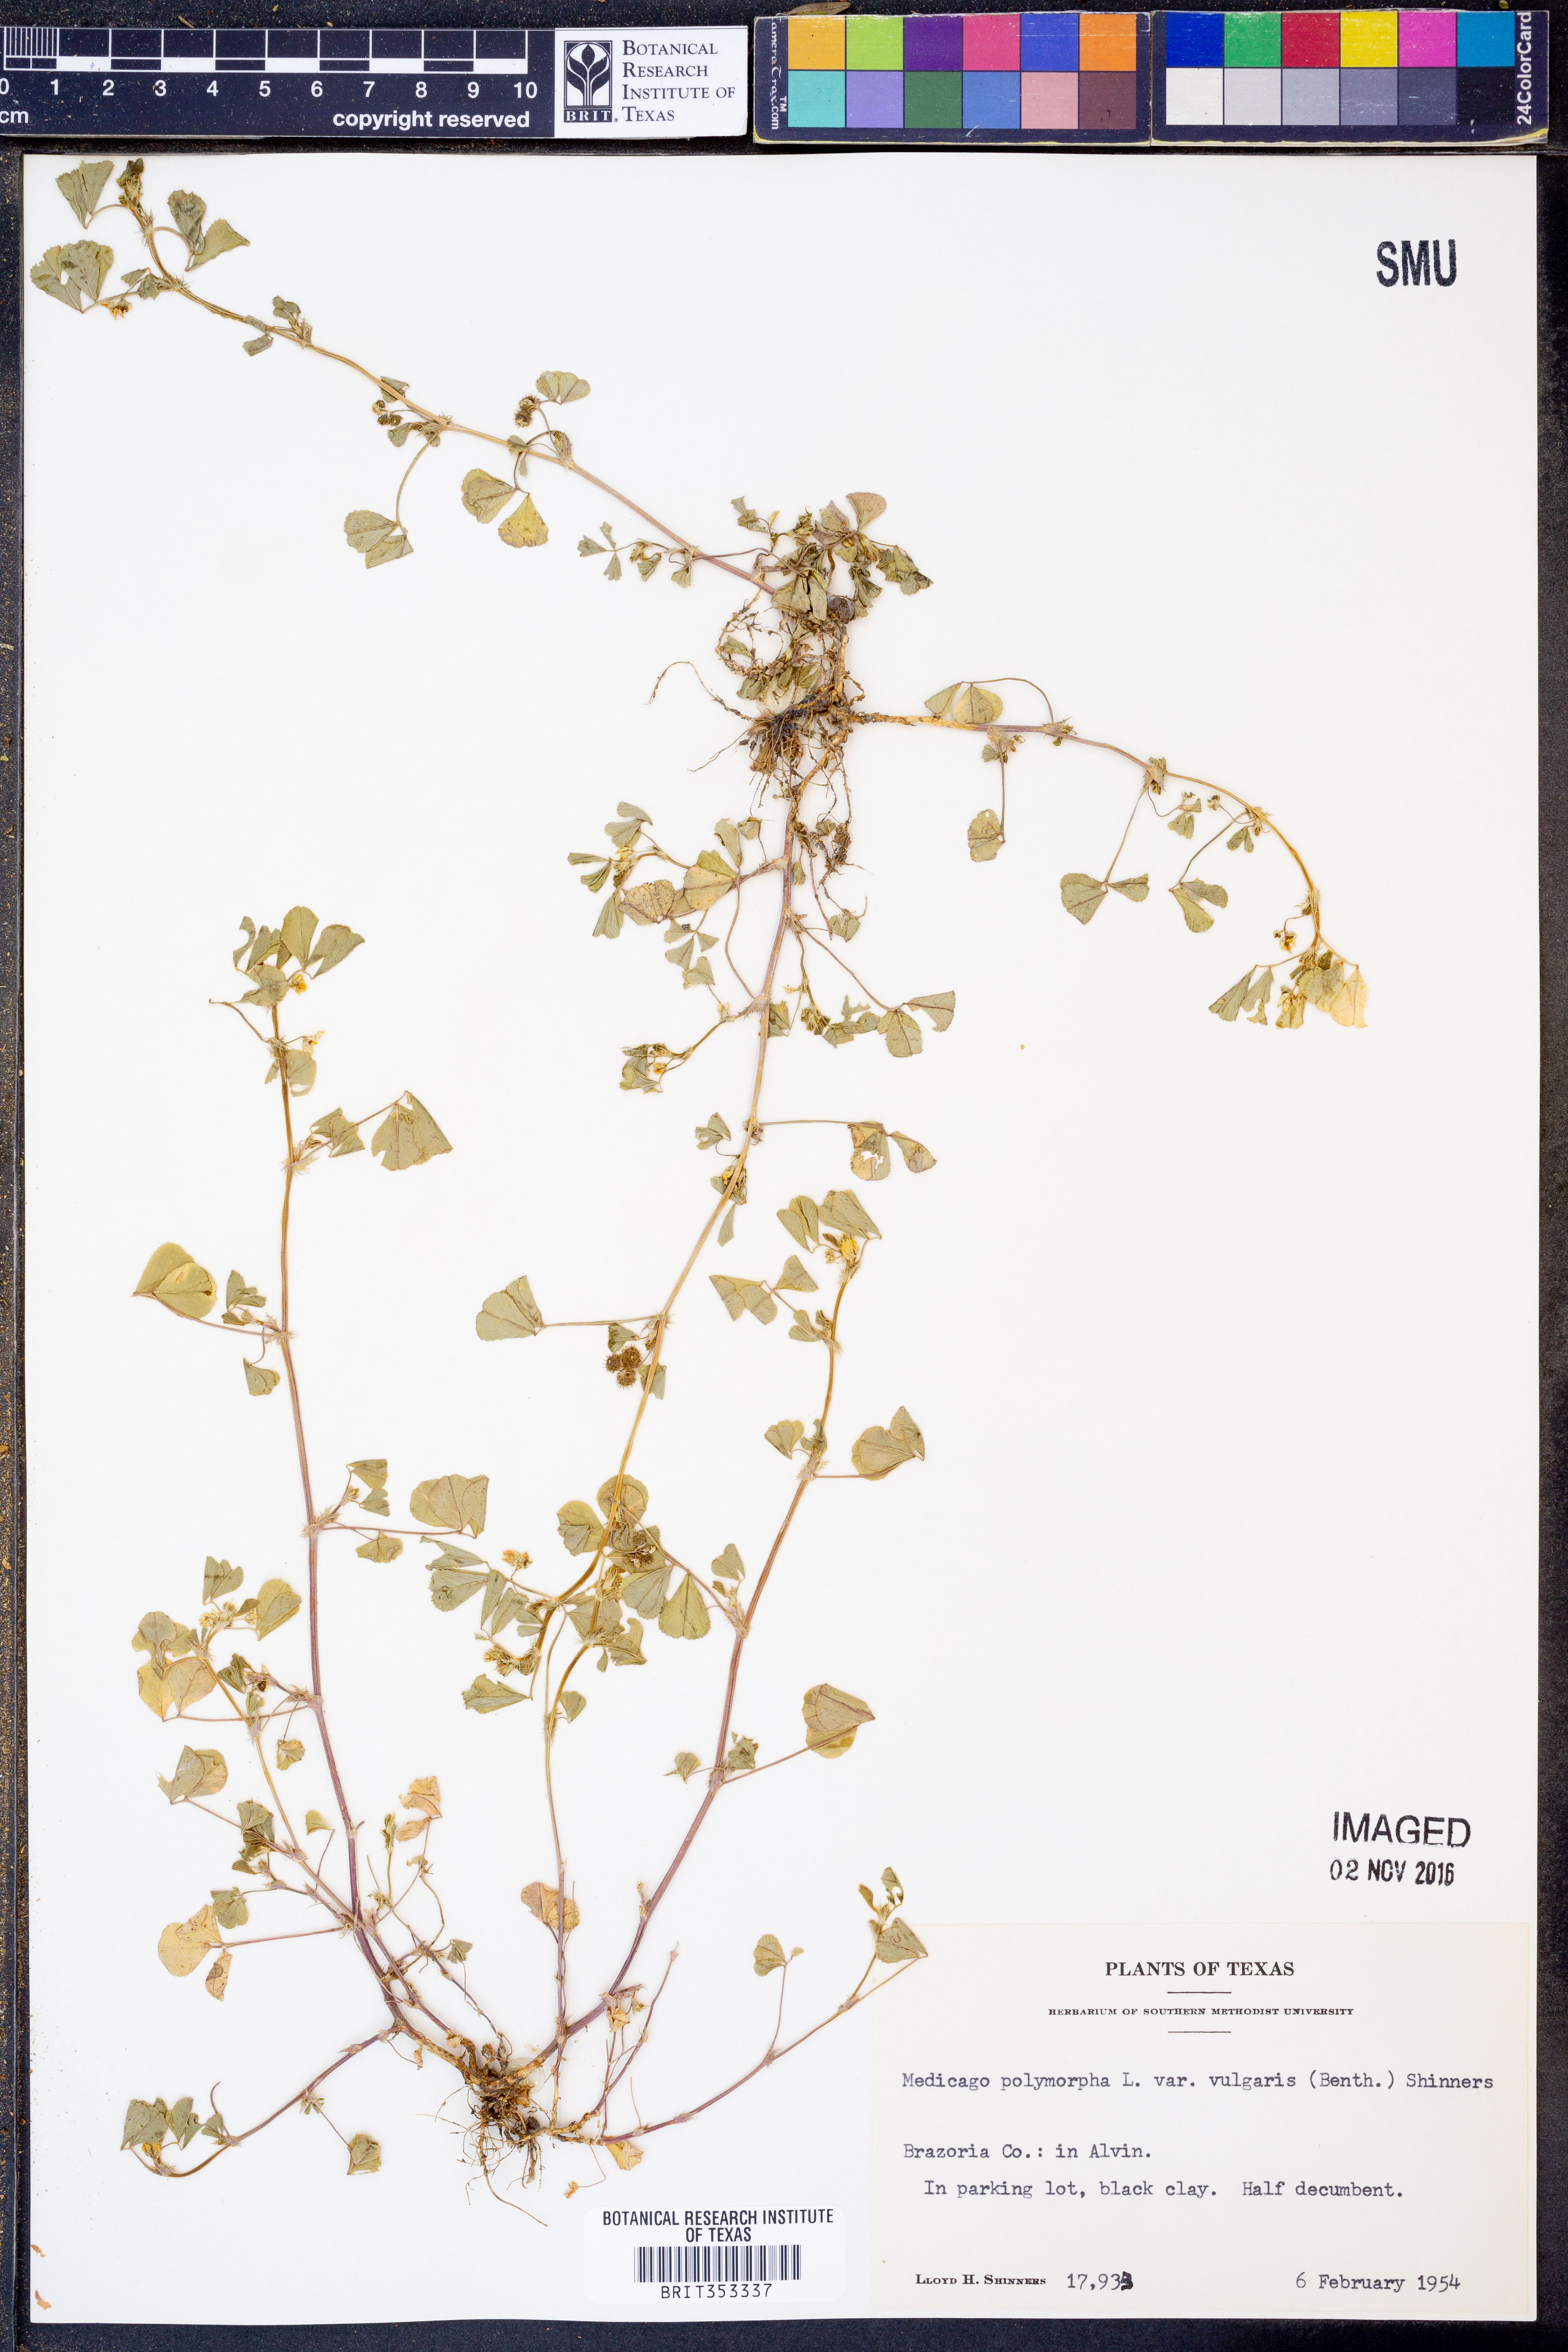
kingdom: Plantae
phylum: Tracheophyta
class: Magnoliopsida
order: Fabales
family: Fabaceae
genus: Medicago
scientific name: Medicago polymorpha
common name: Burclover
